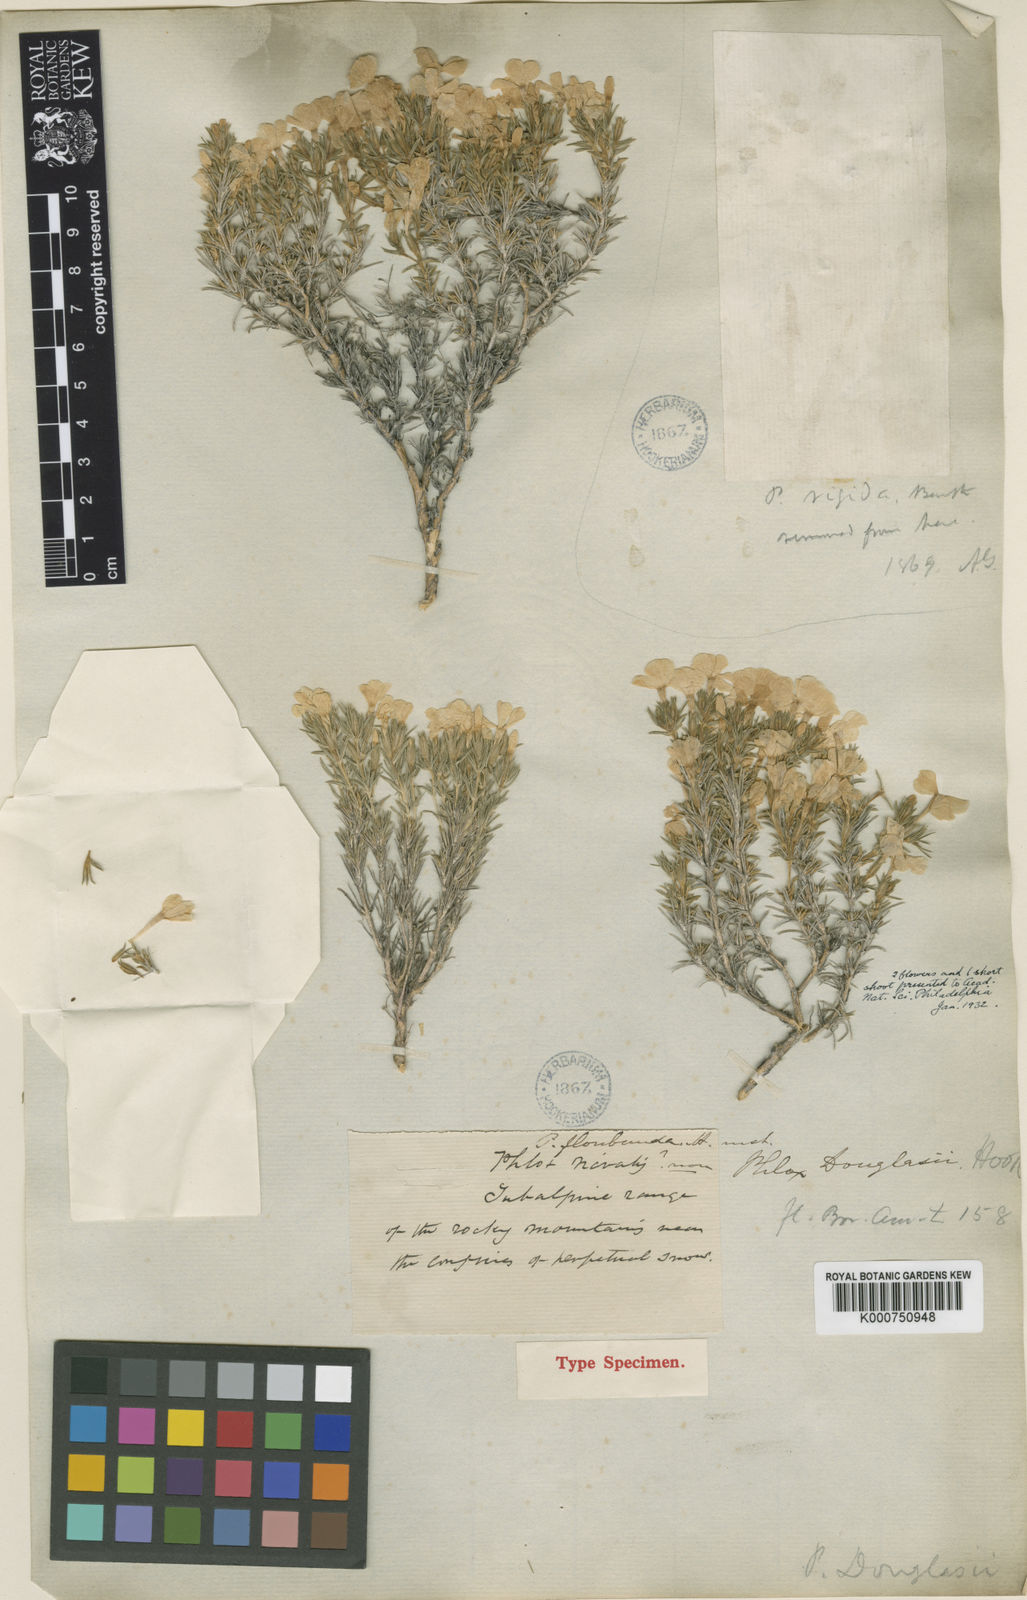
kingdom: Plantae
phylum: Tracheophyta
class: Magnoliopsida
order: Ericales
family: Polemoniaceae
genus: Phlox
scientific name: Phlox douglasii
